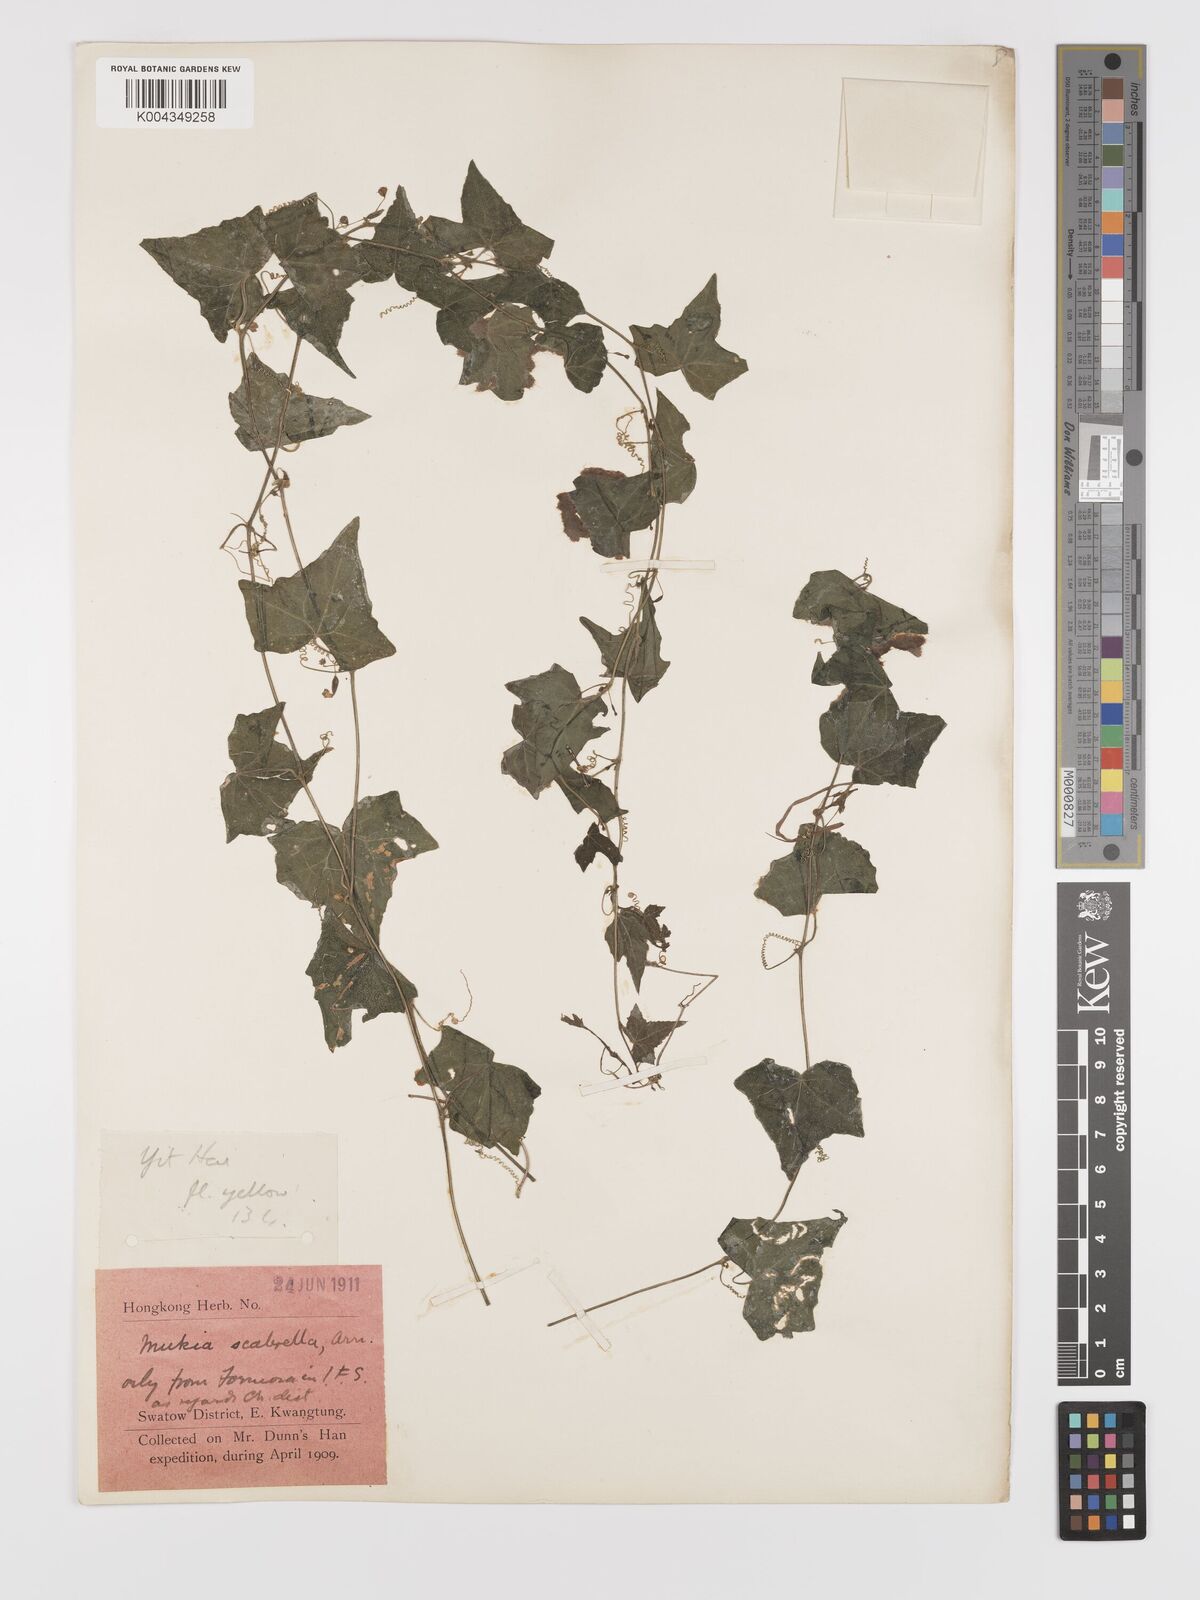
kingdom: Plantae
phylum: Tracheophyta
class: Magnoliopsida
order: Cucurbitales
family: Cucurbitaceae
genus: Zehneria
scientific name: Zehneria japonica
